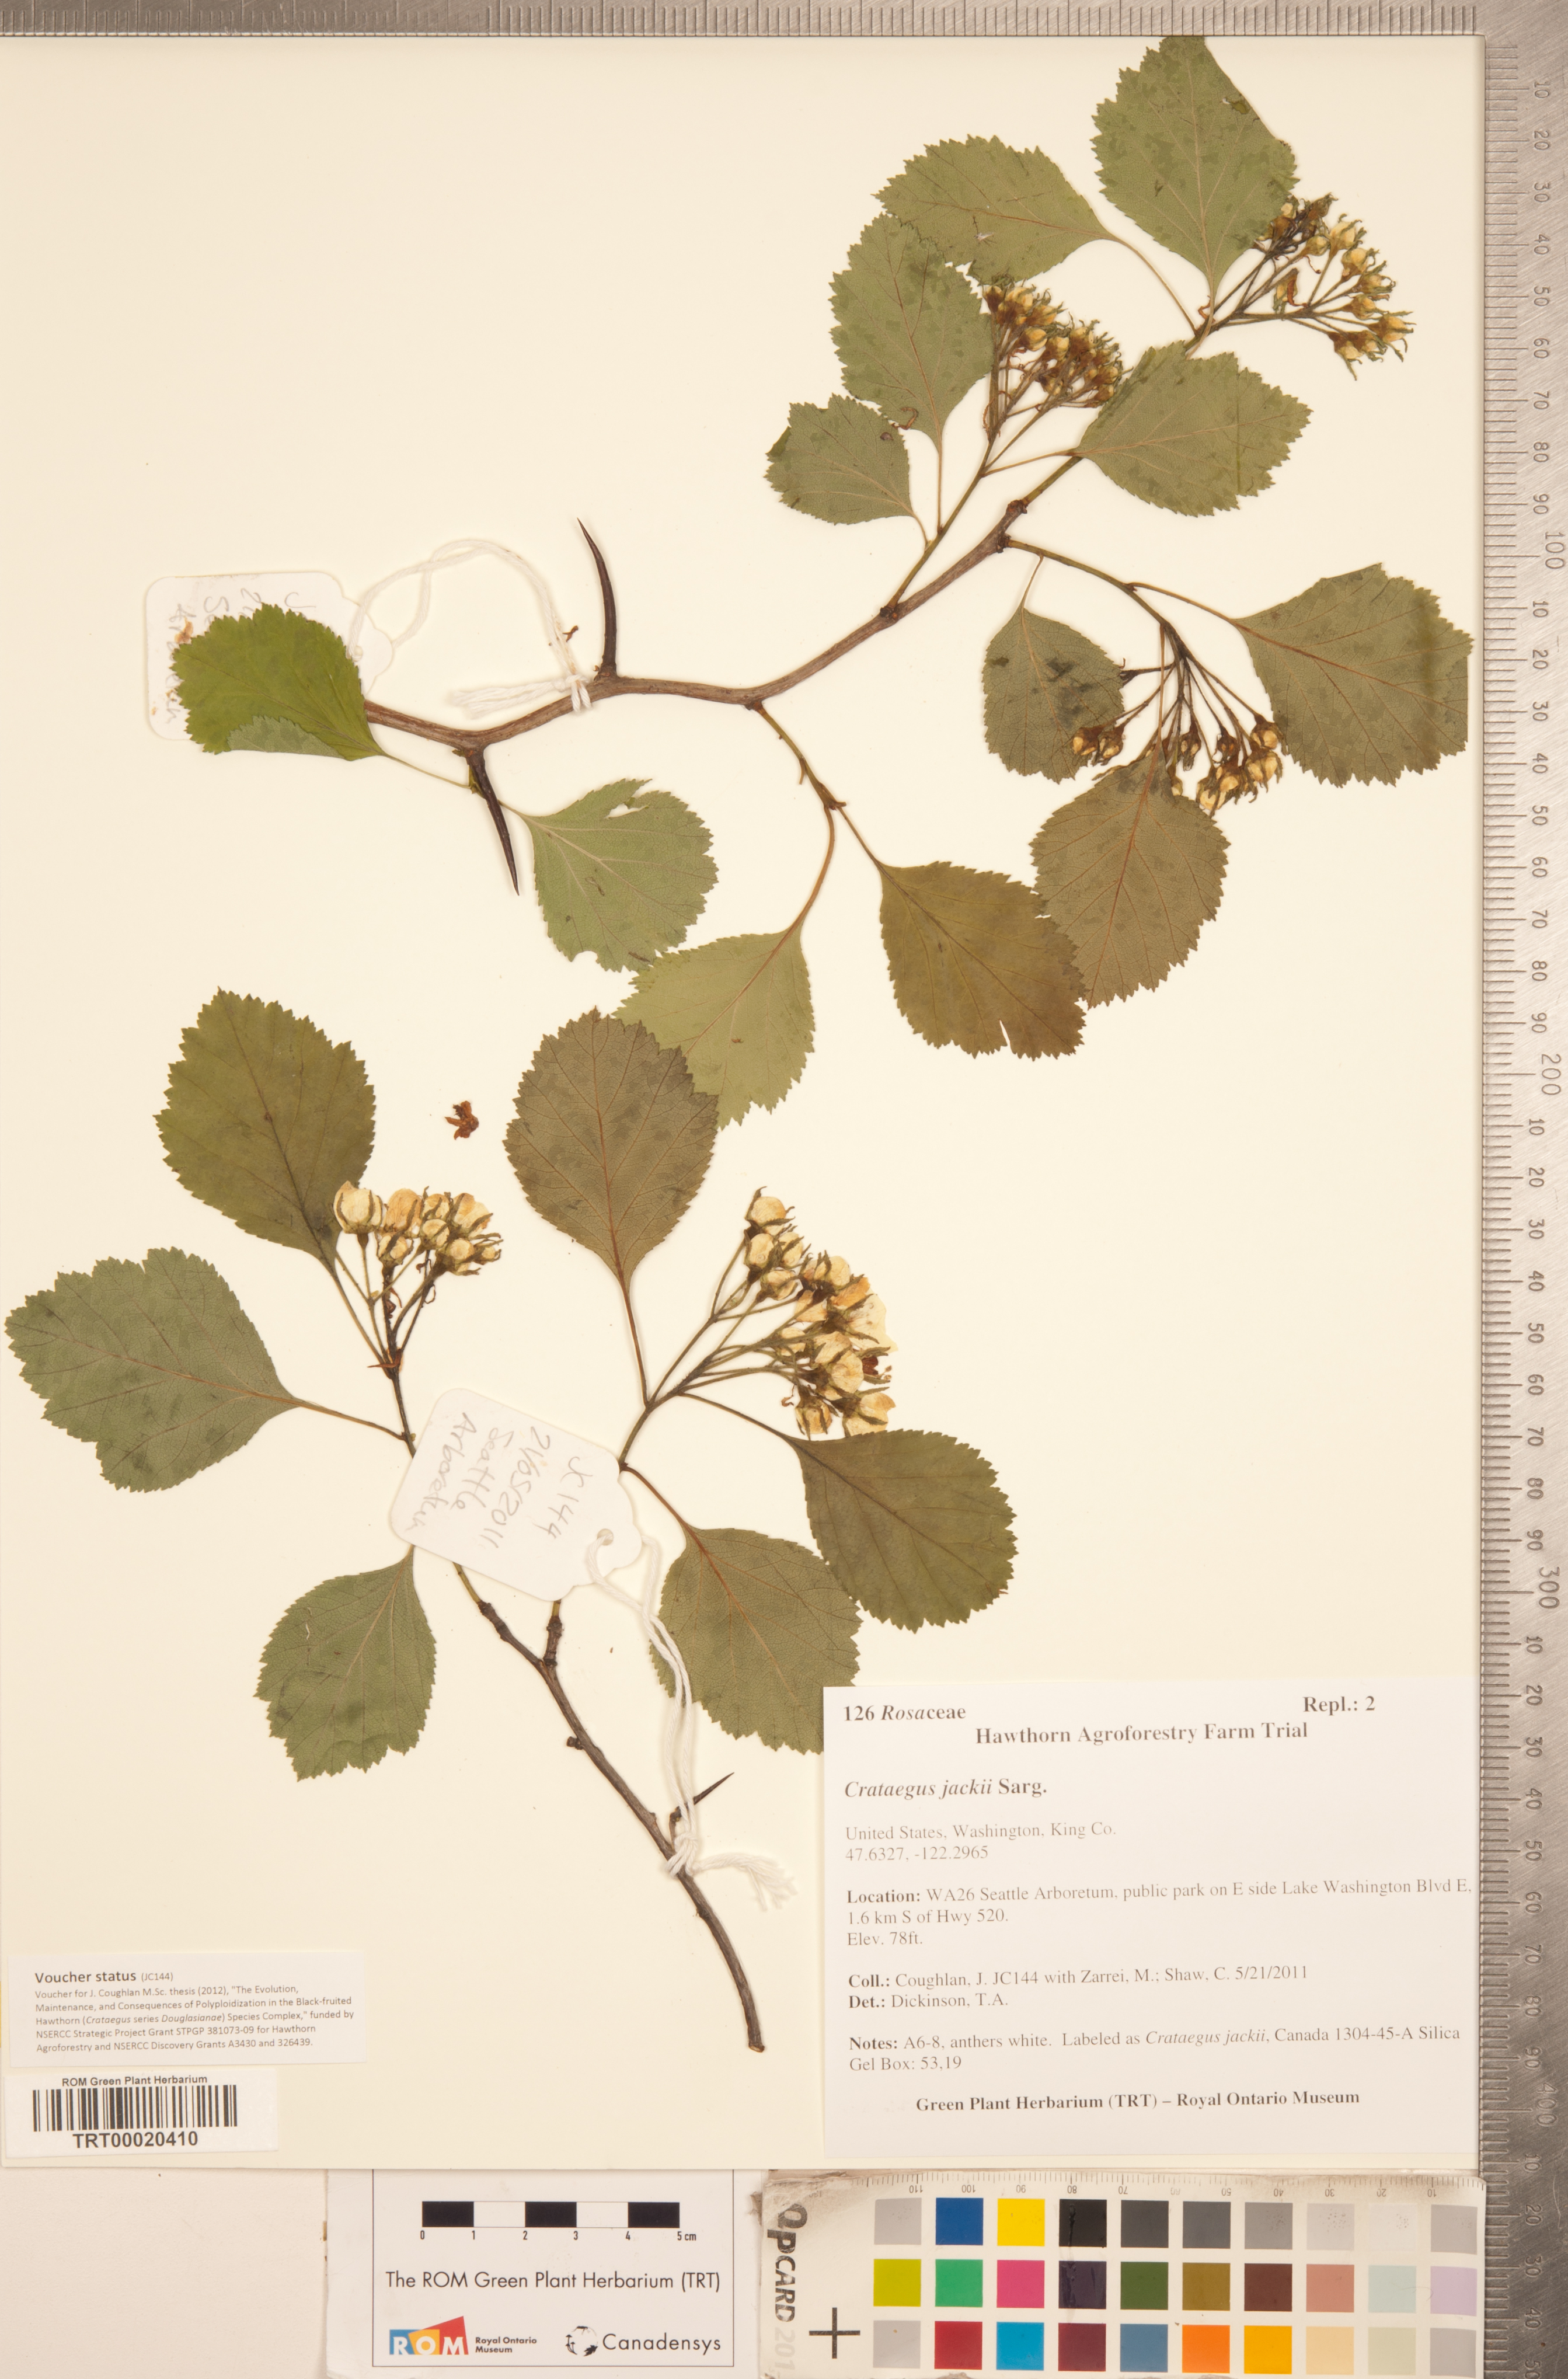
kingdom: Plantae
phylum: Tracheophyta
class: Magnoliopsida
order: Rosales
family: Rosaceae
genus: Crataegus
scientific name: Crataegus lumaria
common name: Jack's hawthorn
